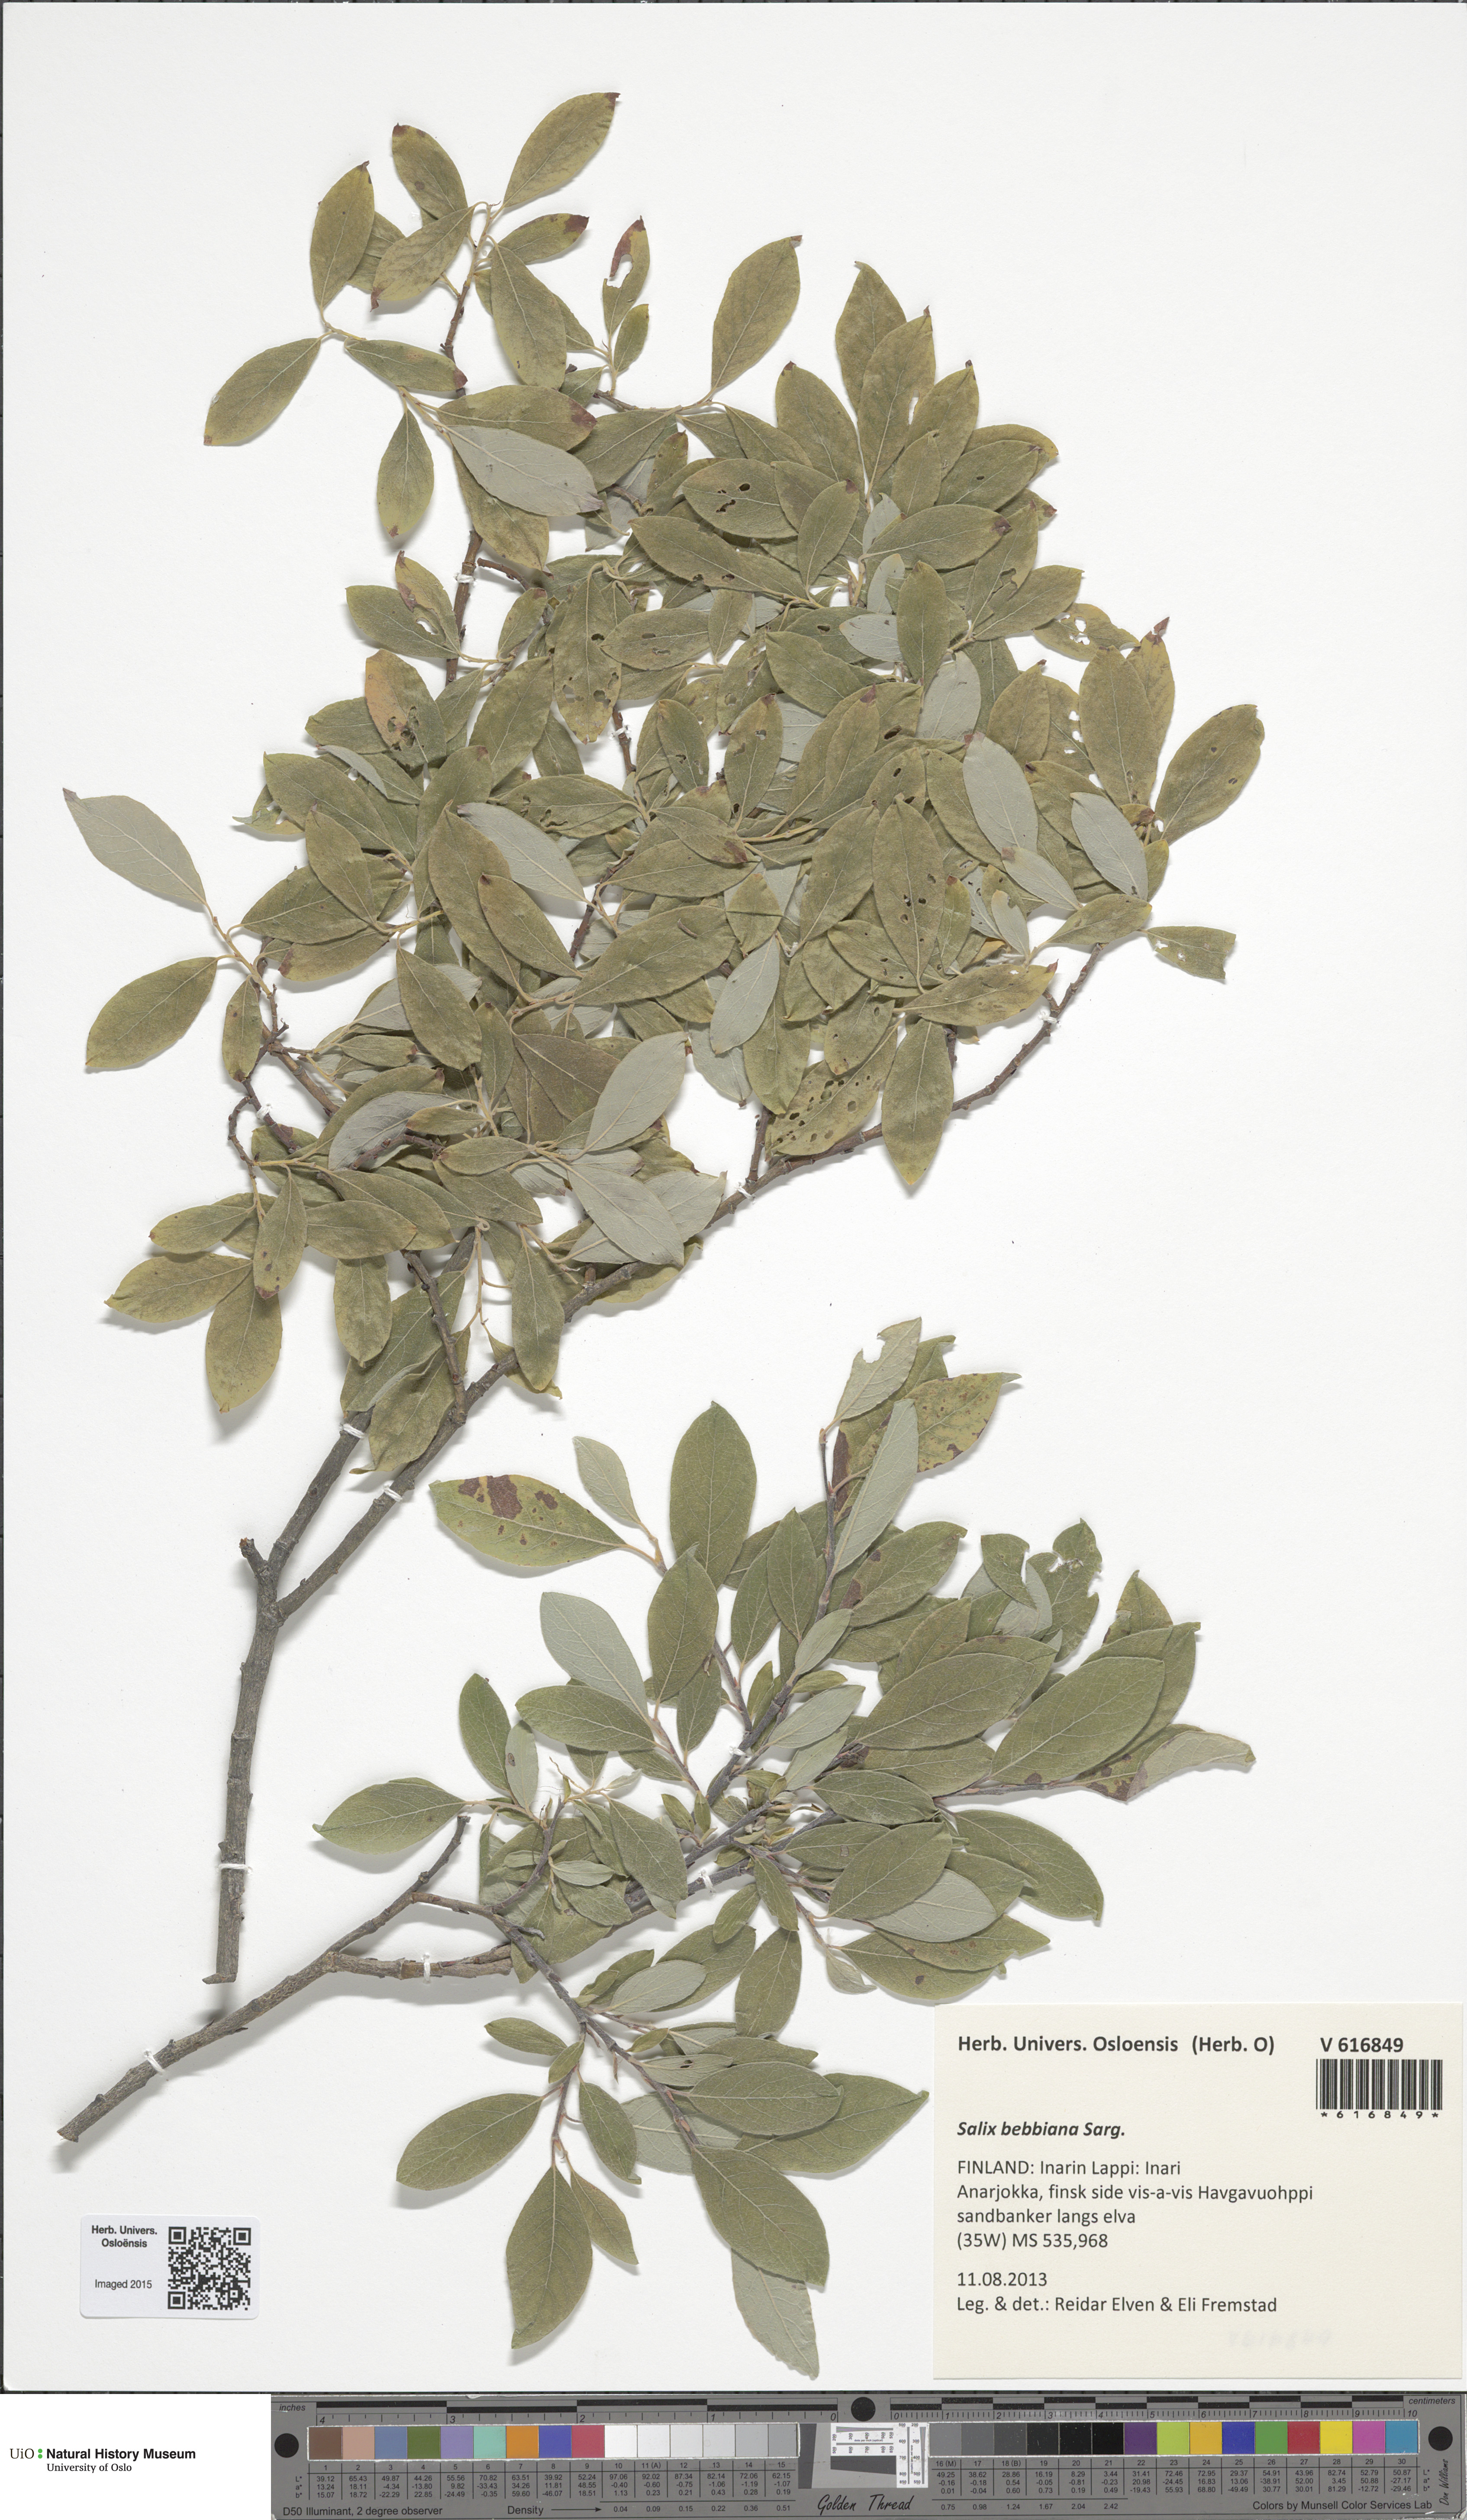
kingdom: Plantae
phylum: Tracheophyta
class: Magnoliopsida
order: Malpighiales
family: Salicaceae
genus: Salix
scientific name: Salix bebbiana
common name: Bebb's willow
